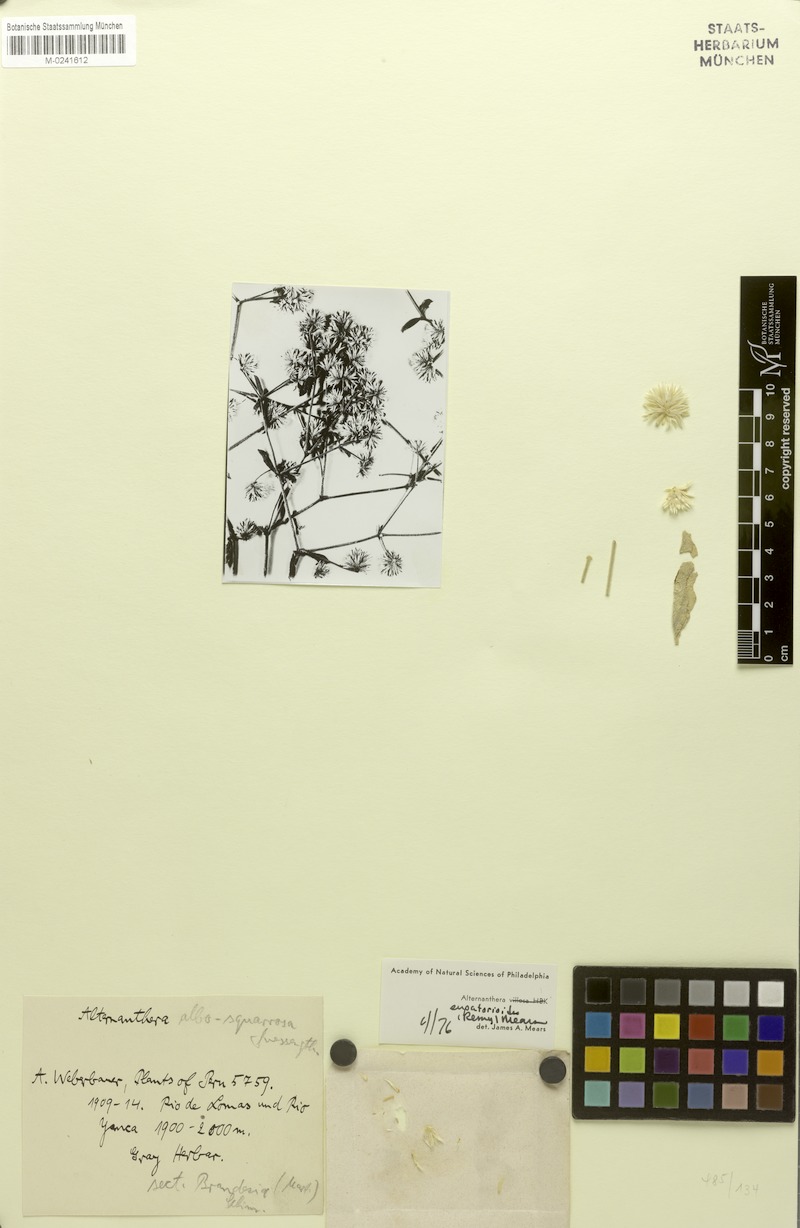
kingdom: Plantae
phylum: Tracheophyta
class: Magnoliopsida
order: Caryophyllales
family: Amaranthaceae
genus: Alternanthera
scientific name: Alternanthera albosquarrosa
